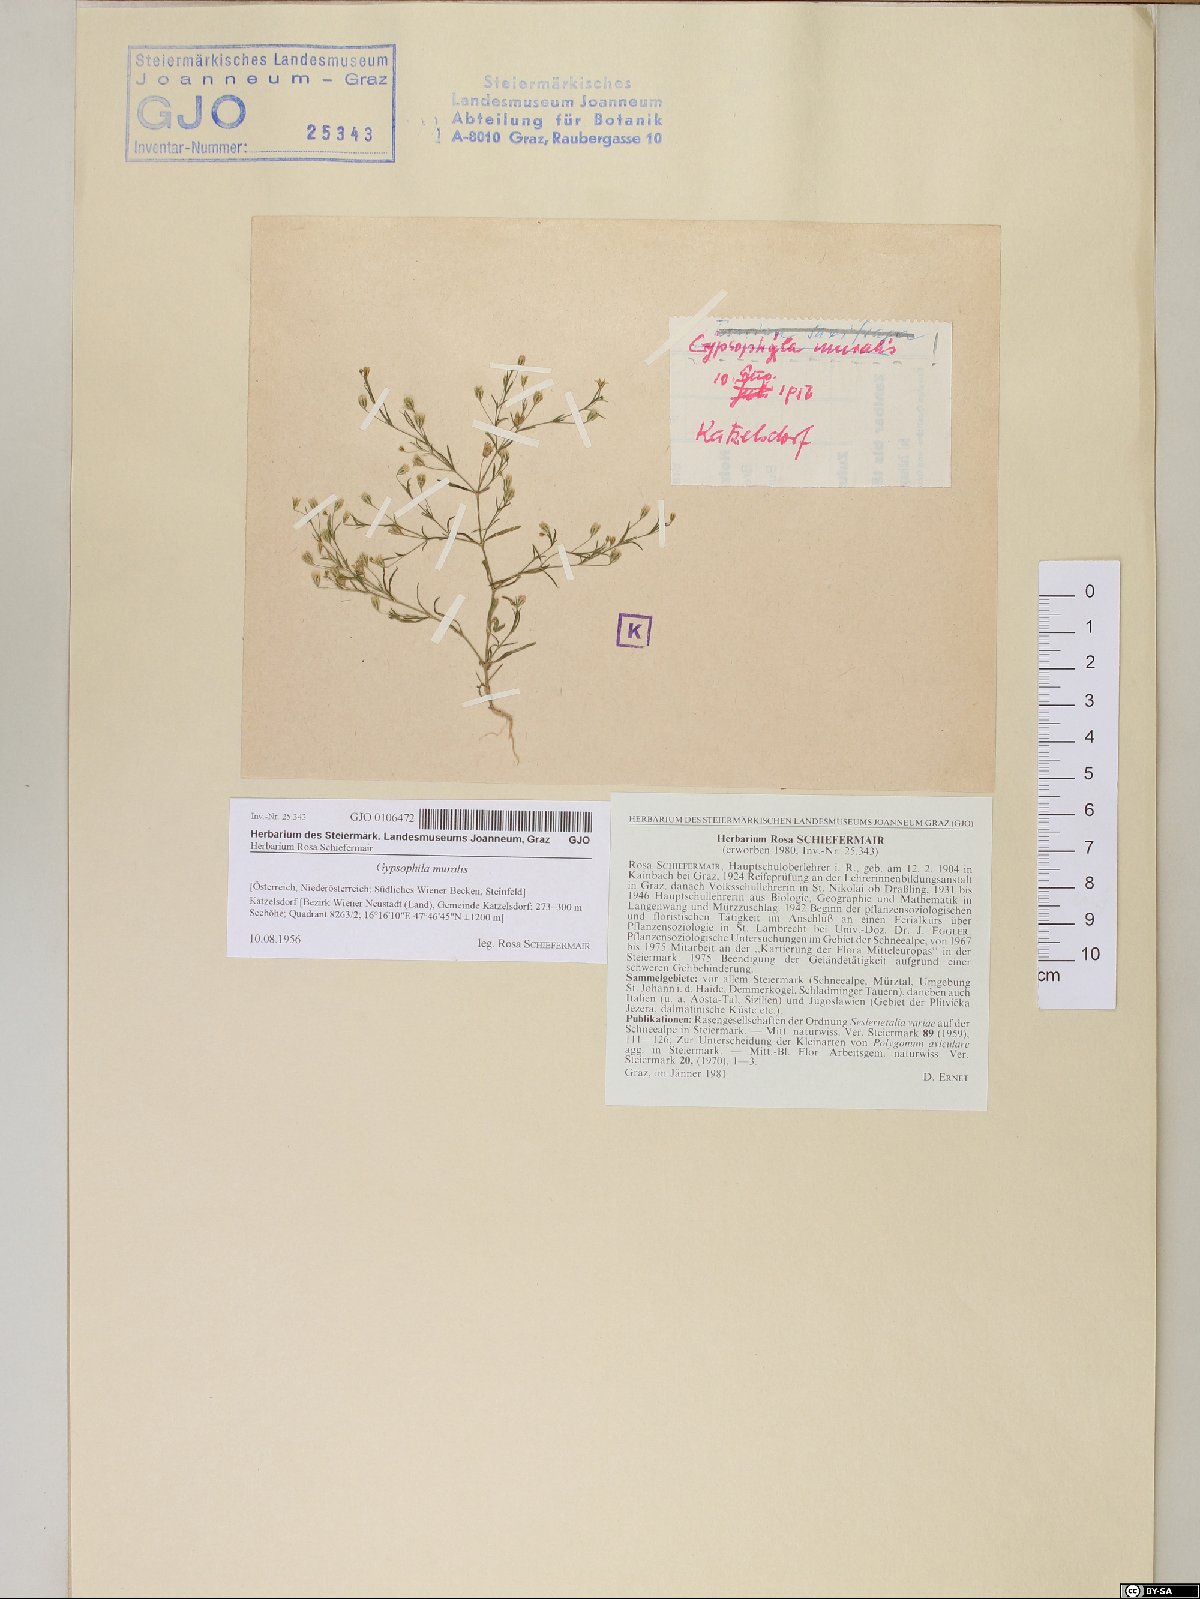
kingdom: Plantae
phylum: Tracheophyta
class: Magnoliopsida
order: Caryophyllales
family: Caryophyllaceae
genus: Psammophiliella
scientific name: Psammophiliella muralis
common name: Cushion baby's-breath
